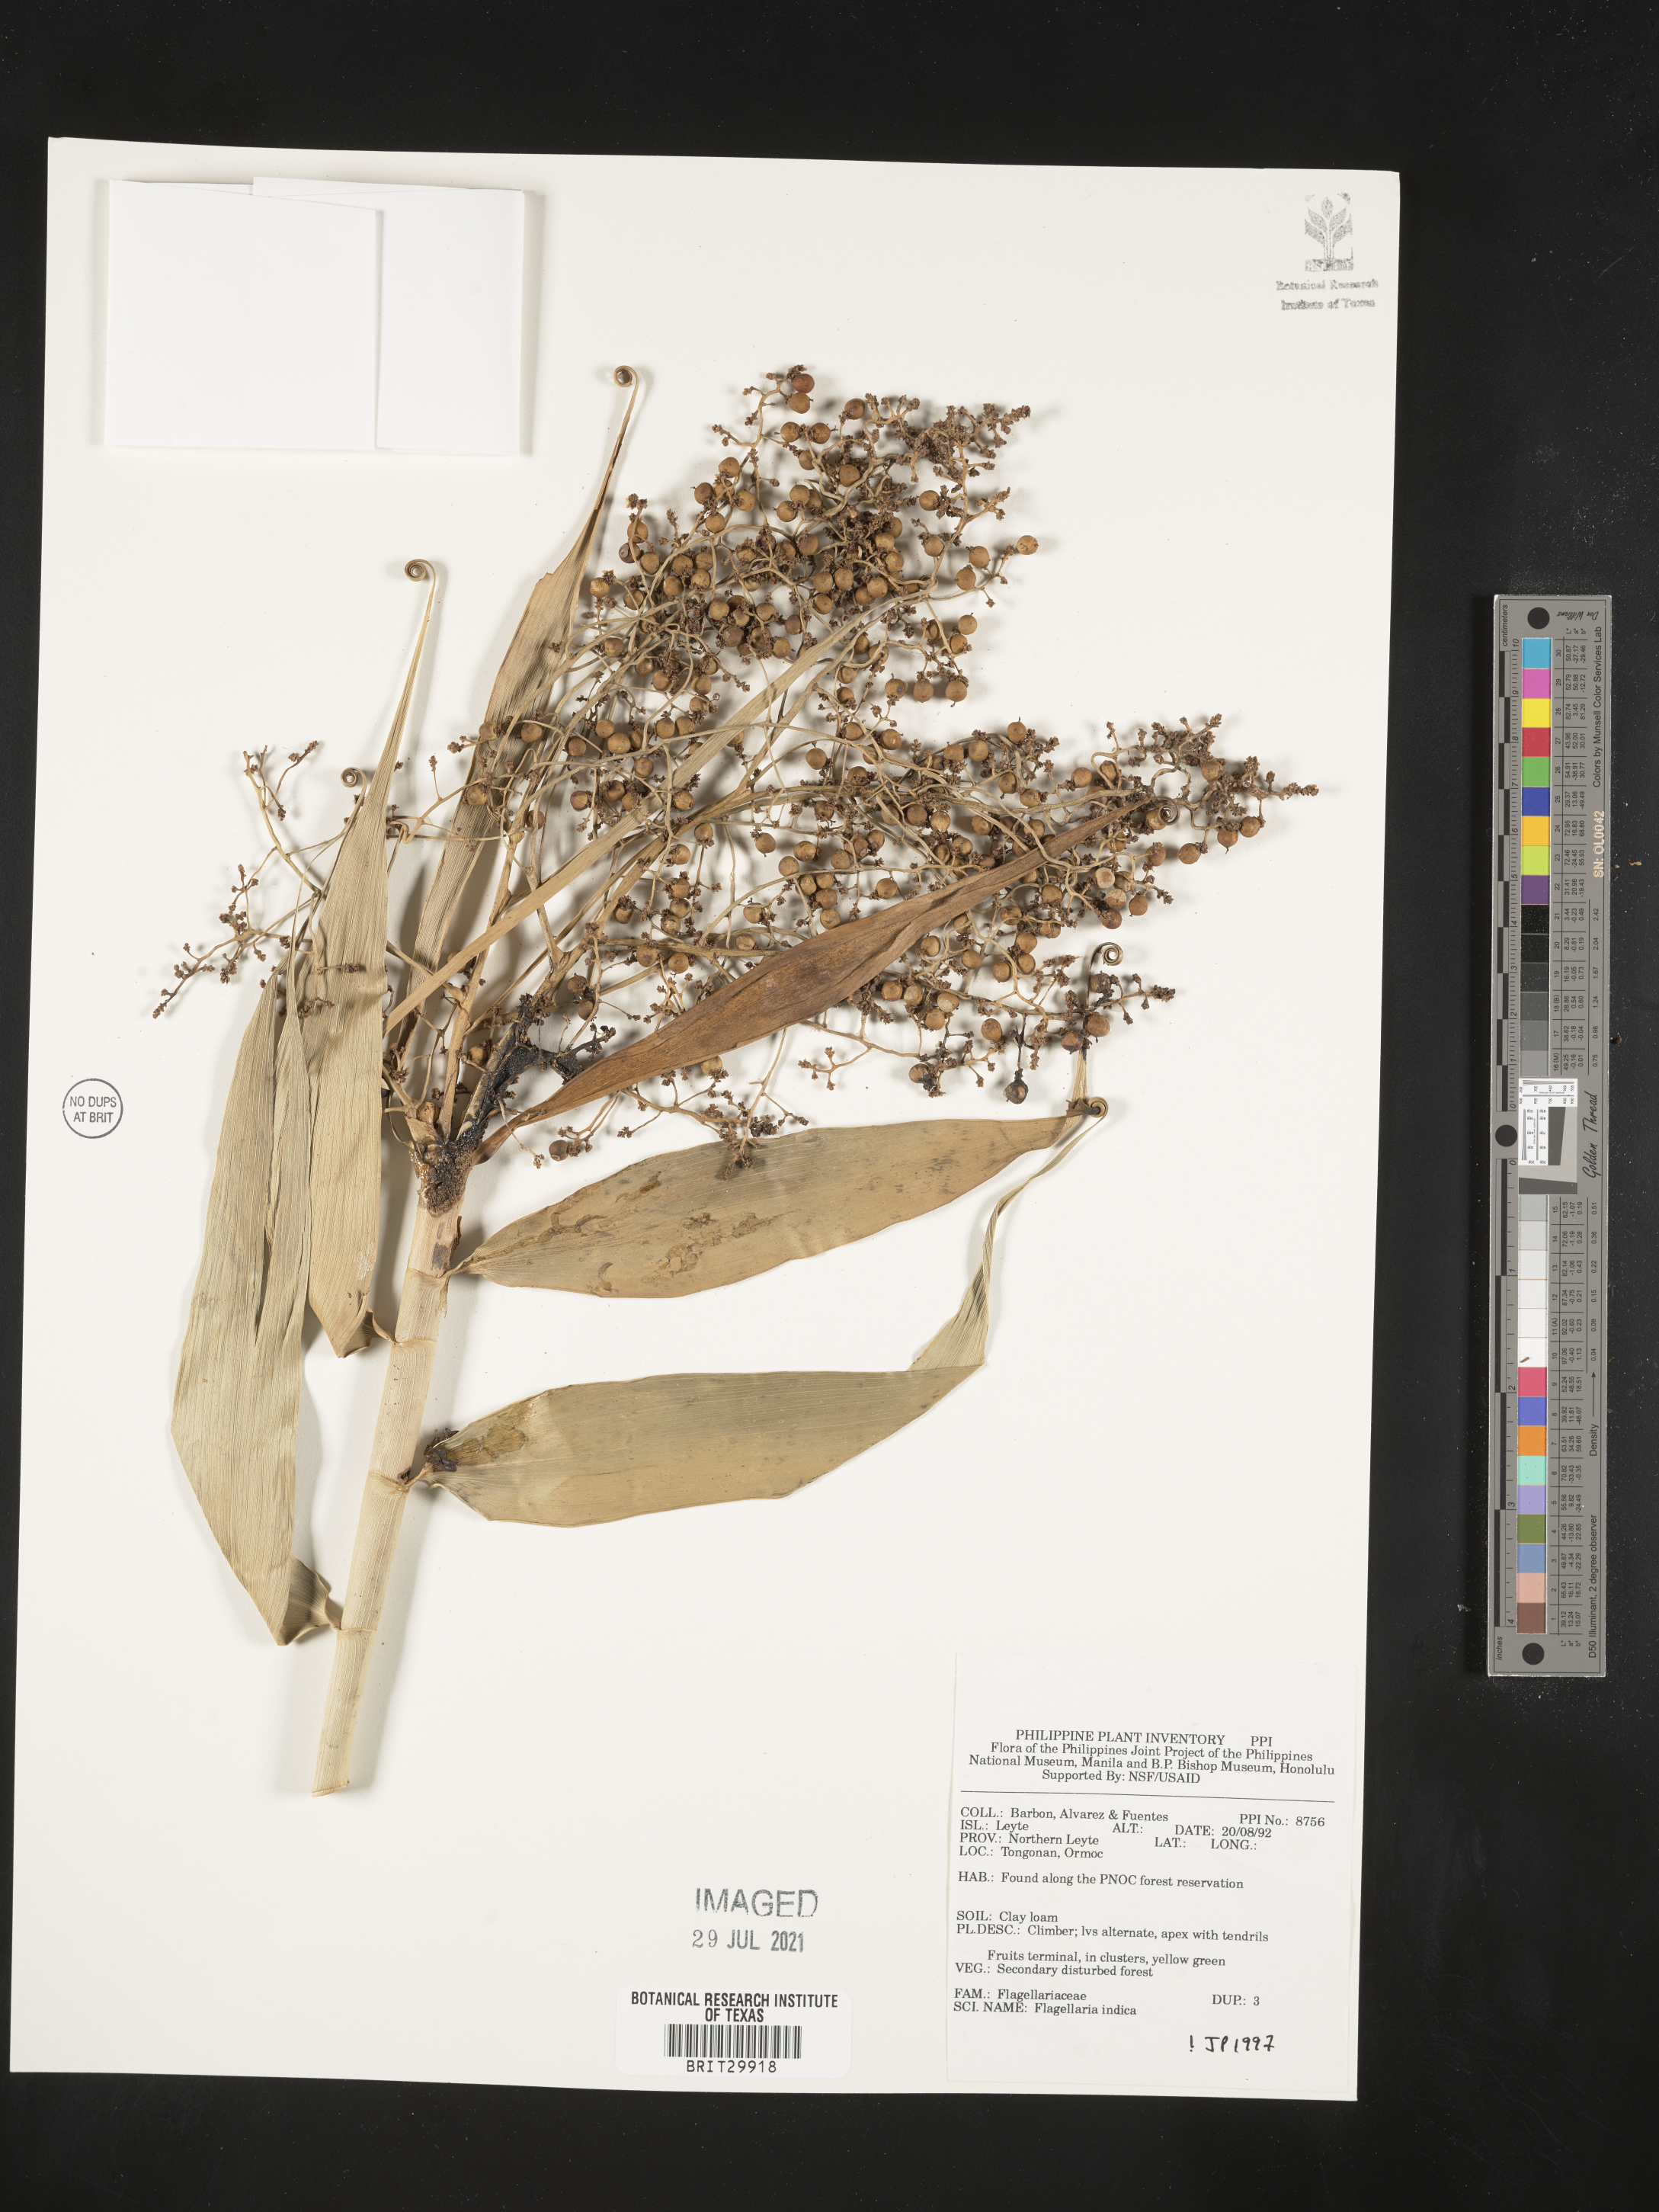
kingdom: Plantae
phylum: Tracheophyta
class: Liliopsida
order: Poales
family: Flagellariaceae
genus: Flagellaria
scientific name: Flagellaria indica
